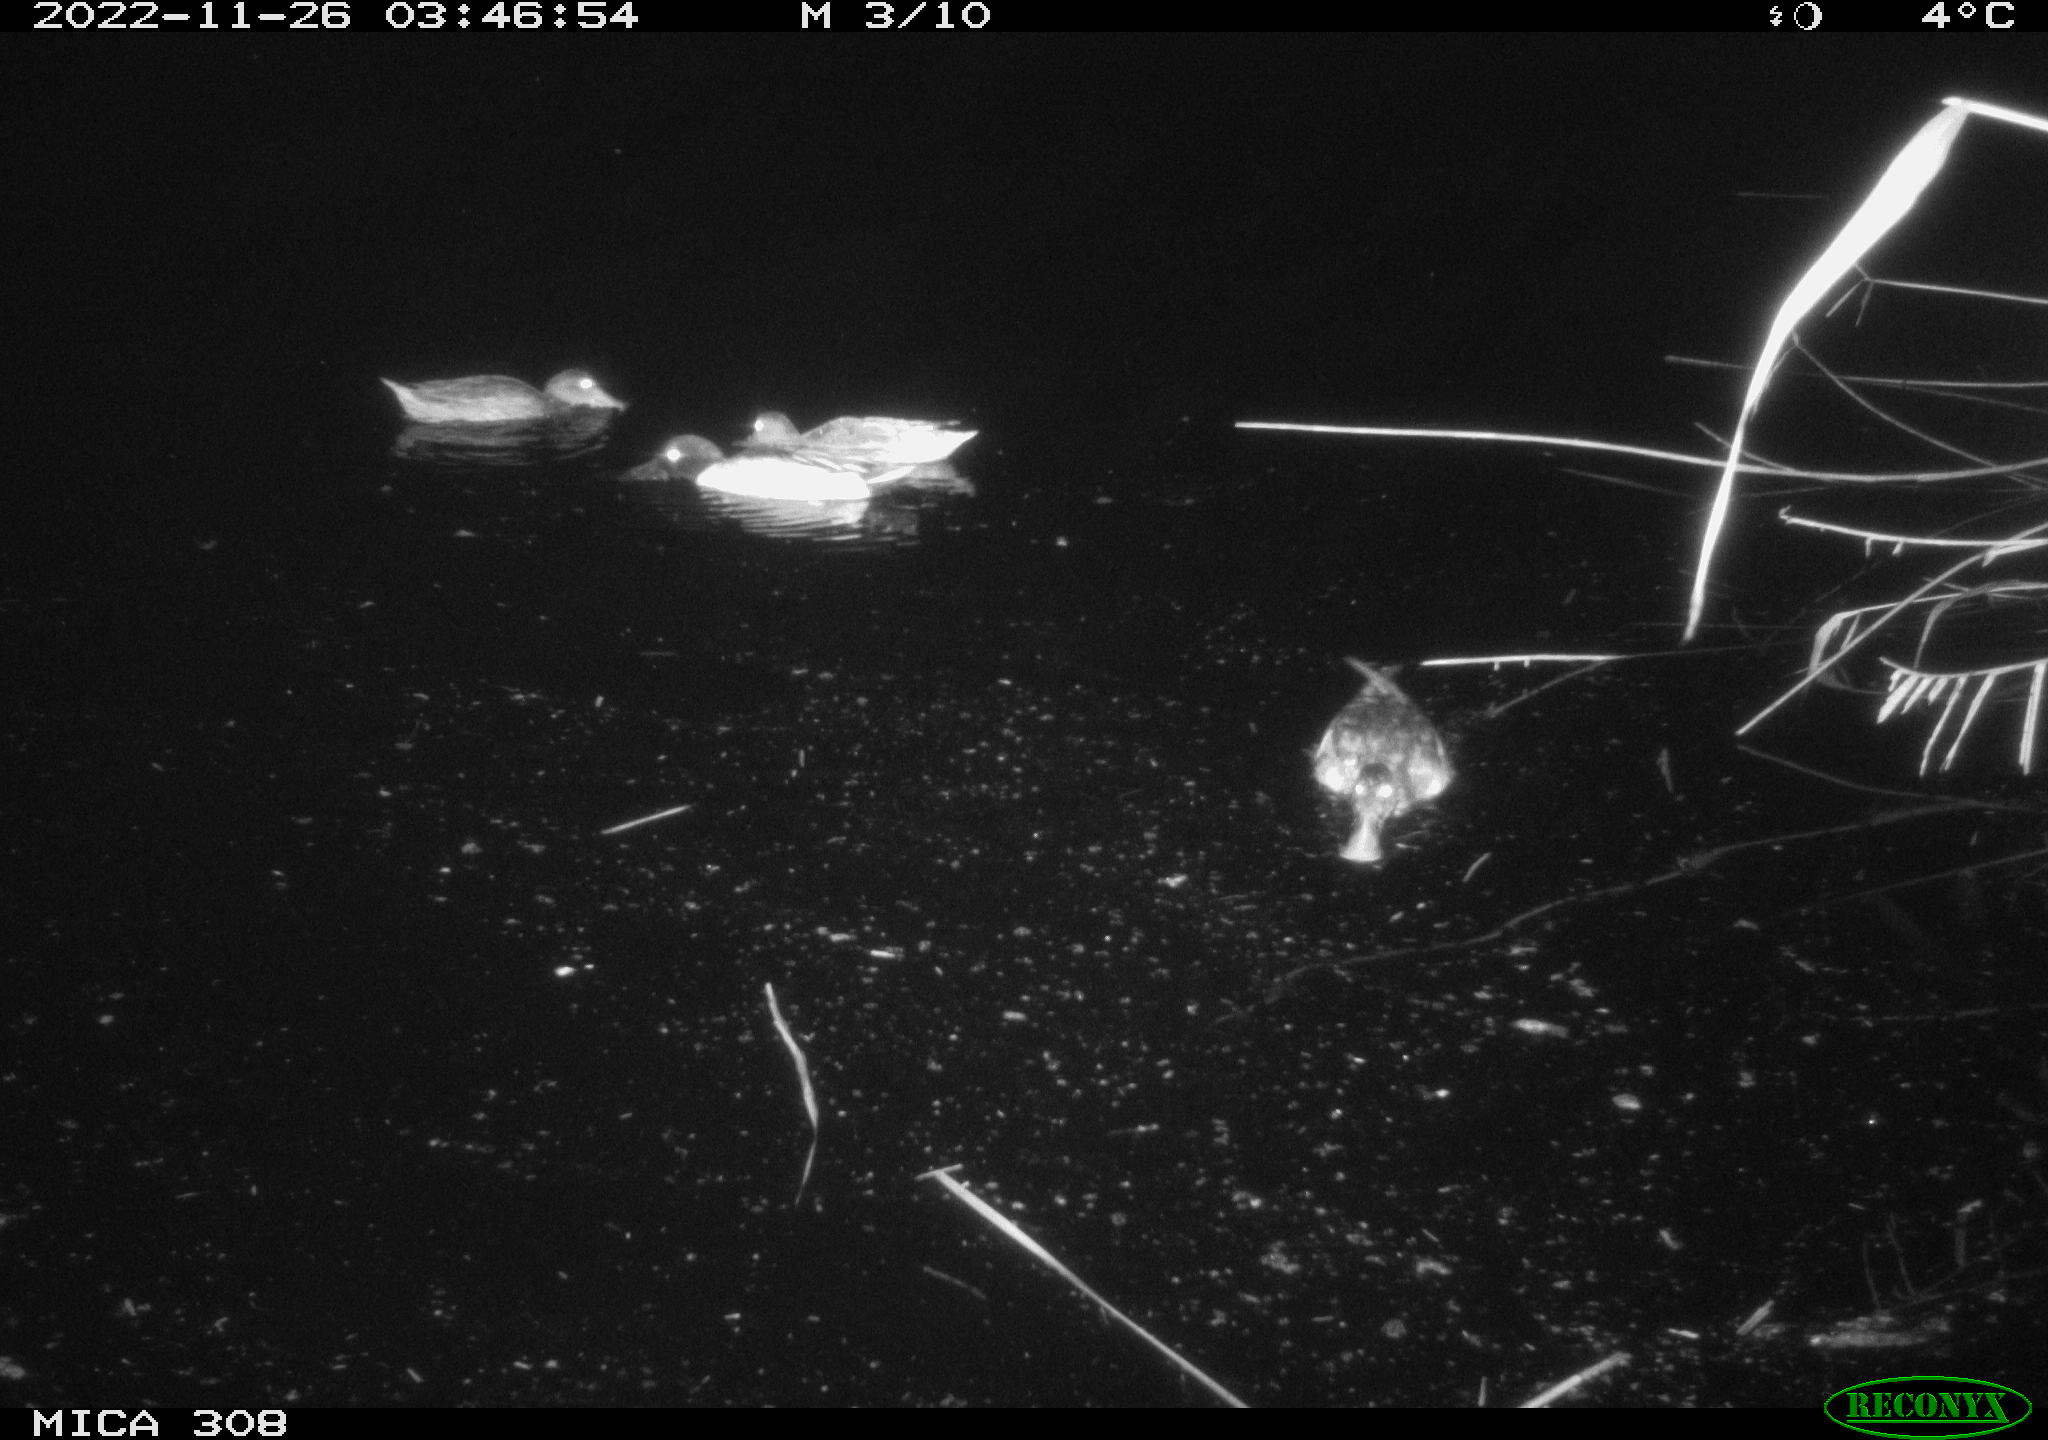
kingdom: Animalia
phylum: Chordata
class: Aves
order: Anseriformes
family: Anatidae
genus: Anas
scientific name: Anas
